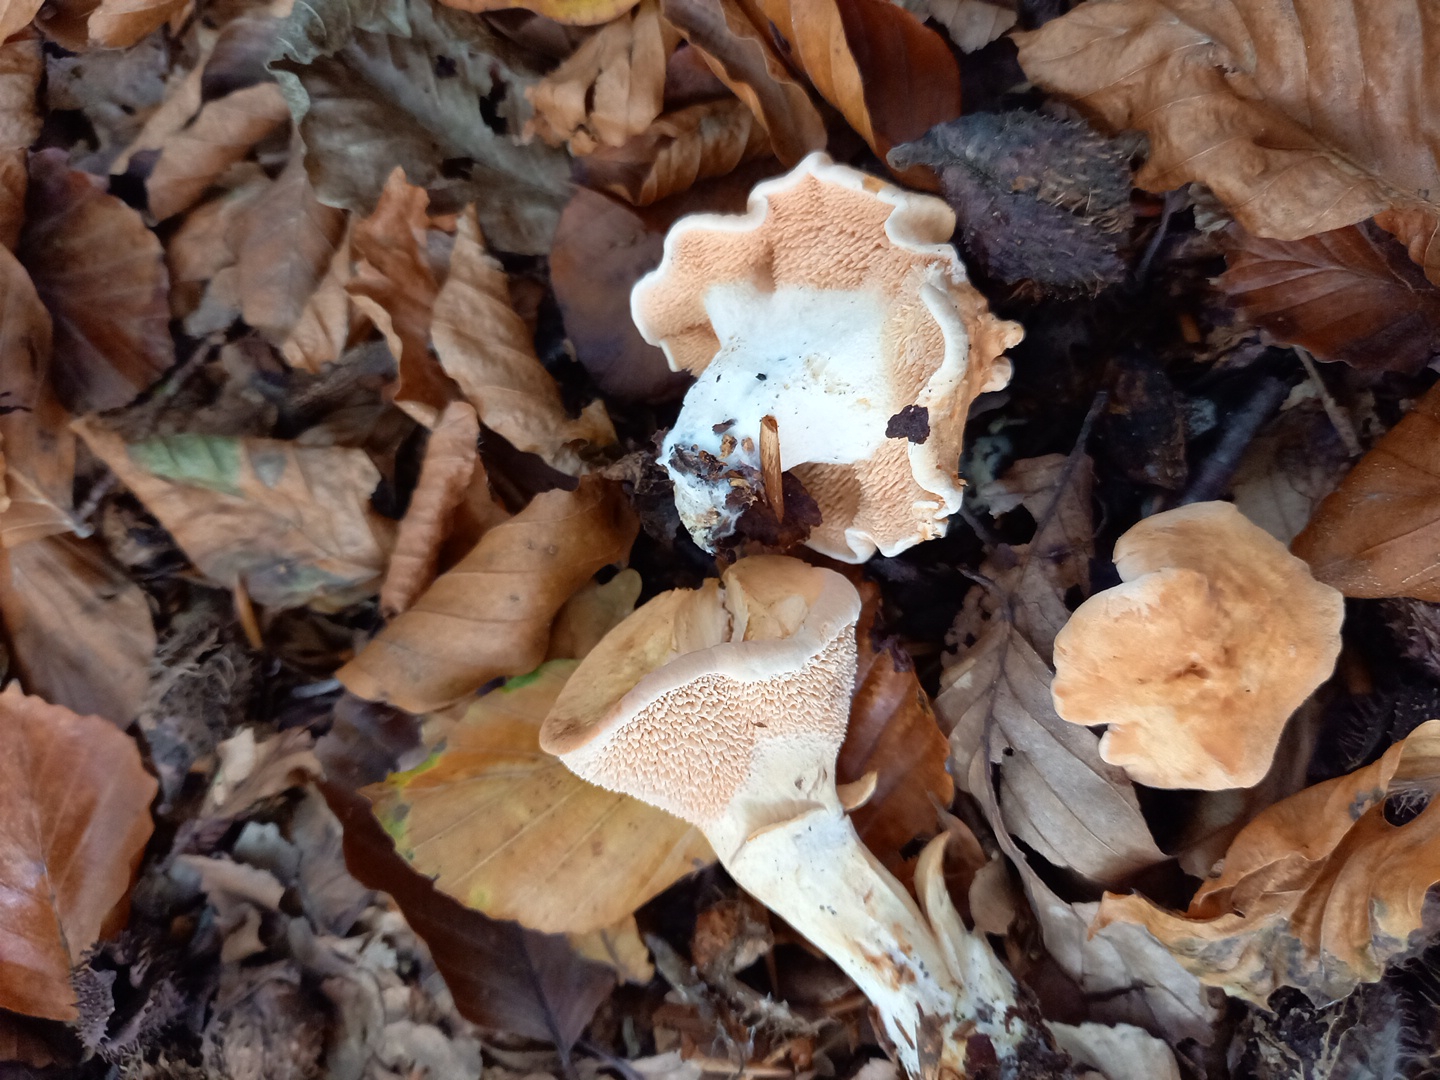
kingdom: Fungi
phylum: Basidiomycota
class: Agaricomycetes
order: Cantharellales
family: Hydnaceae
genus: Hydnum
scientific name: Hydnum
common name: pigsvamp
